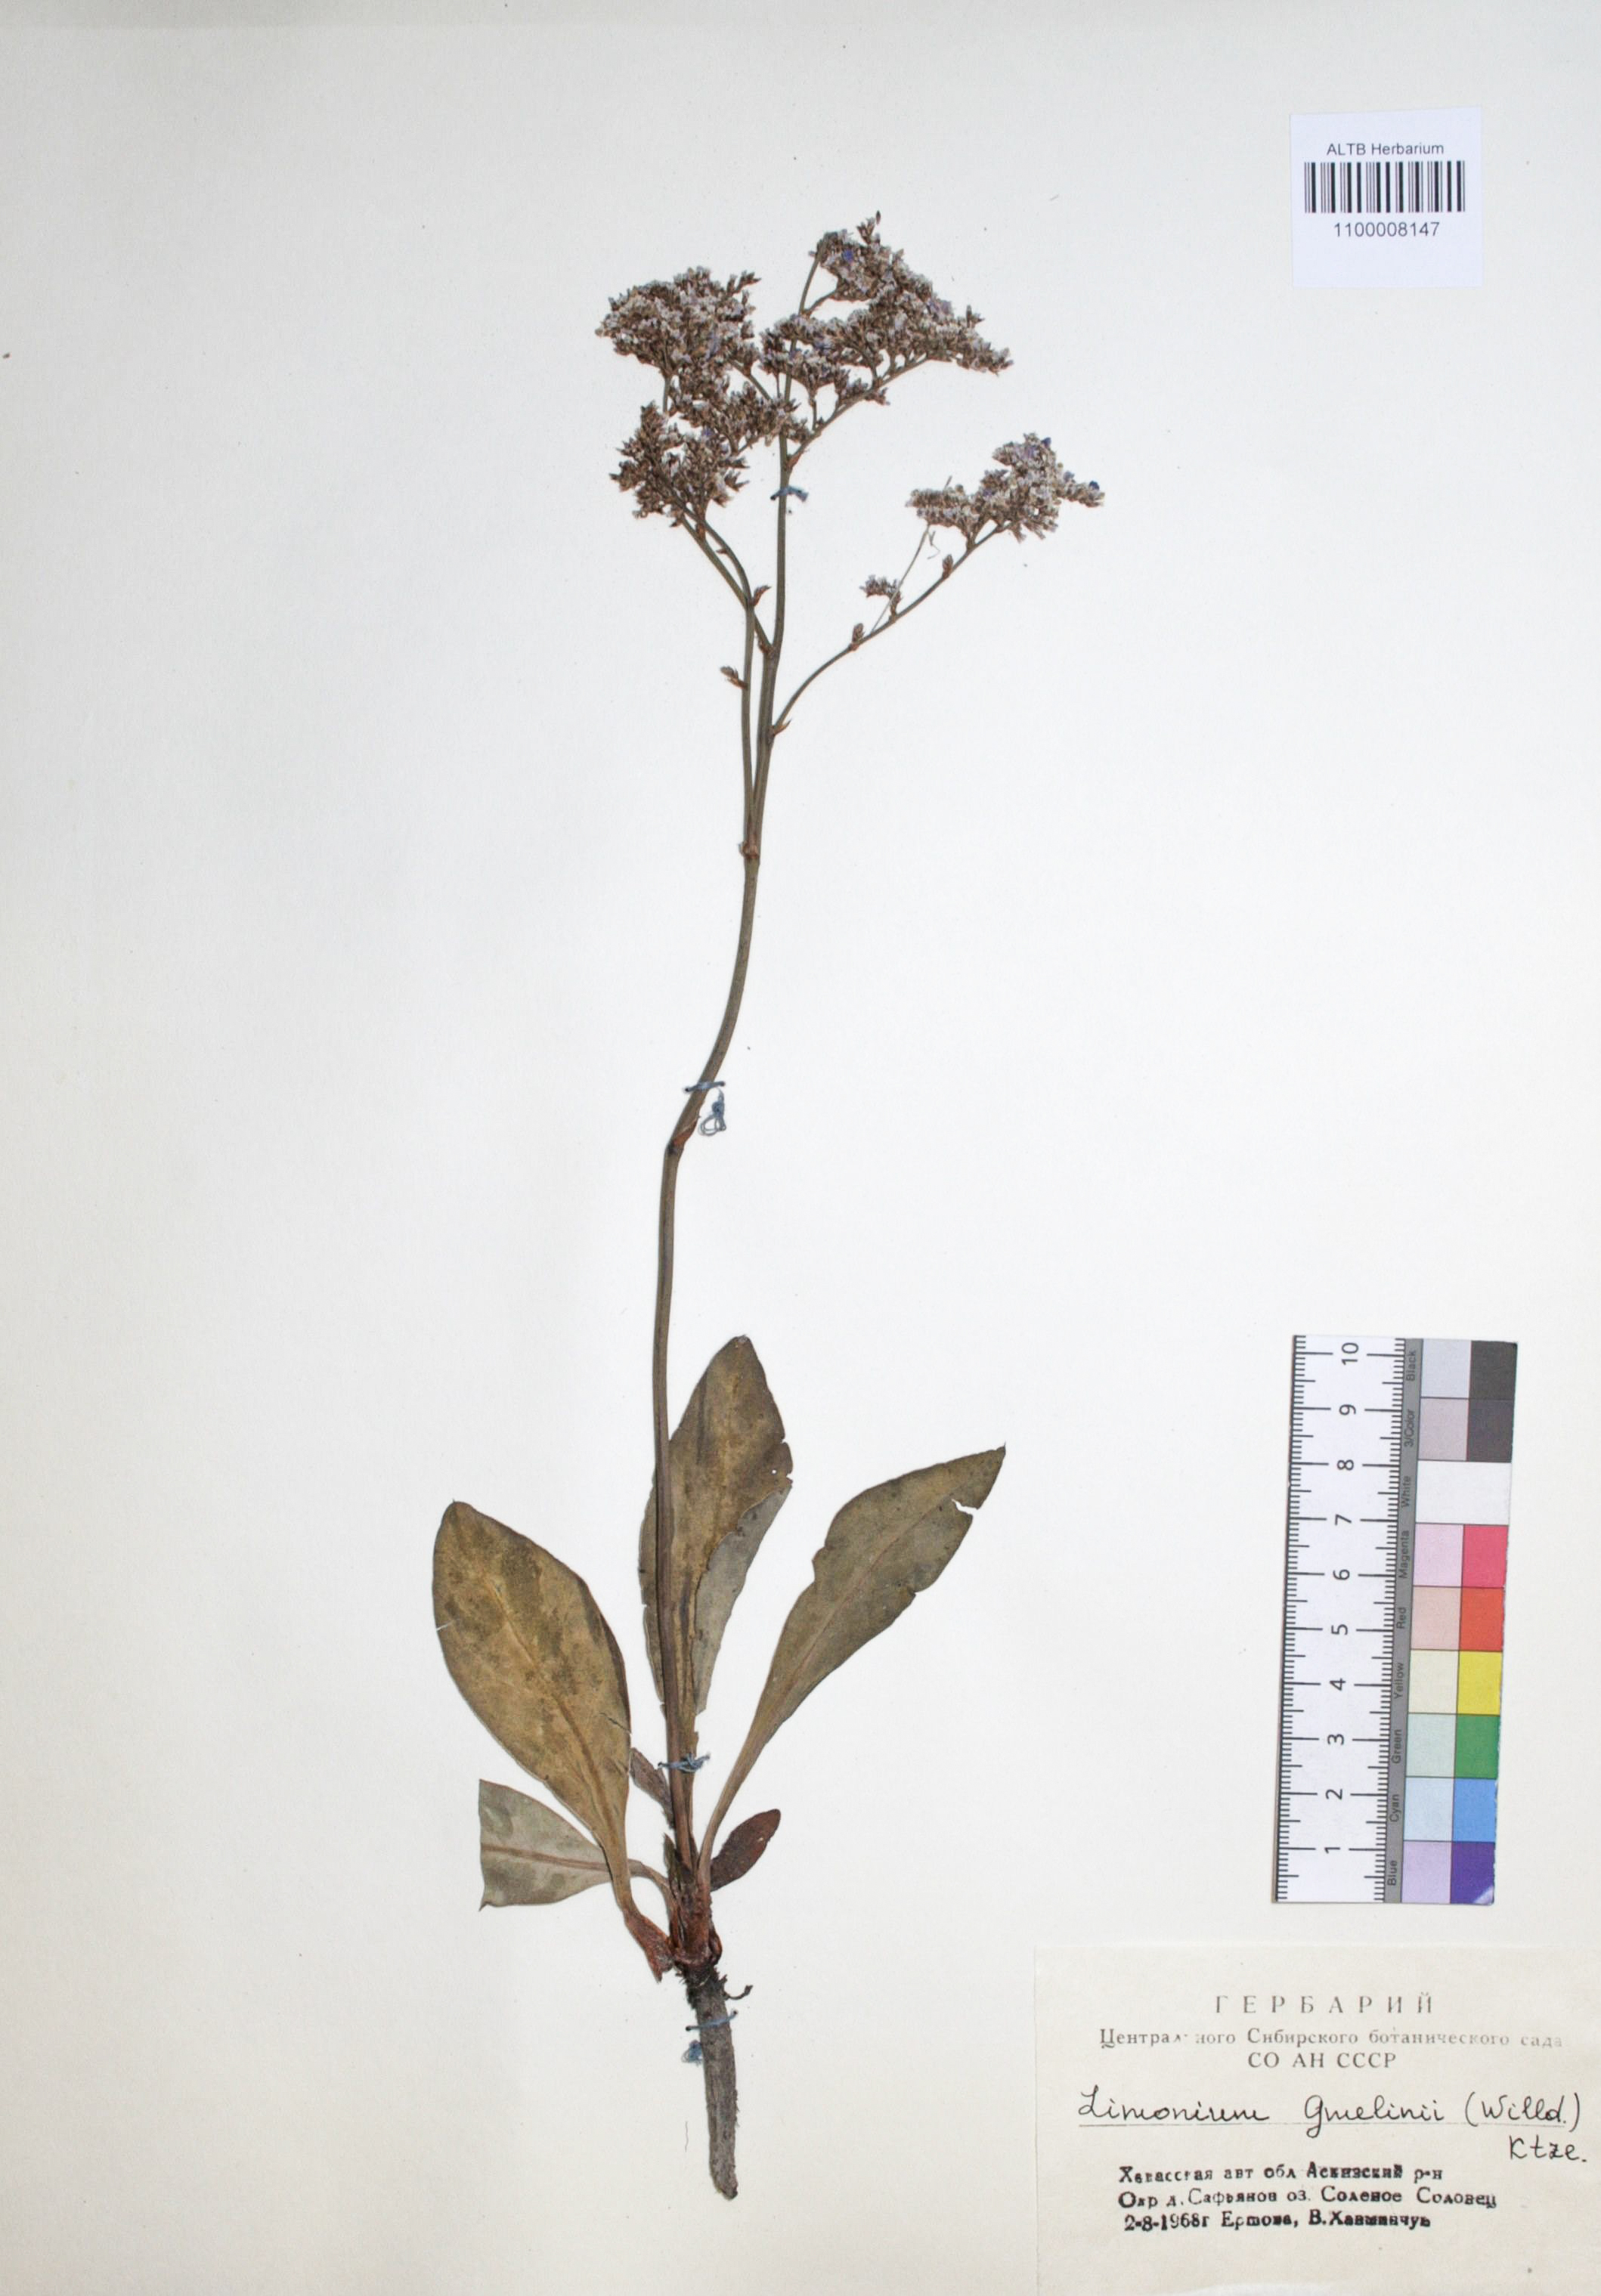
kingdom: Plantae
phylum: Tracheophyta
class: Magnoliopsida
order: Caryophyllales
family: Plumbaginaceae
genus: Limonium
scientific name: Limonium gmelini
